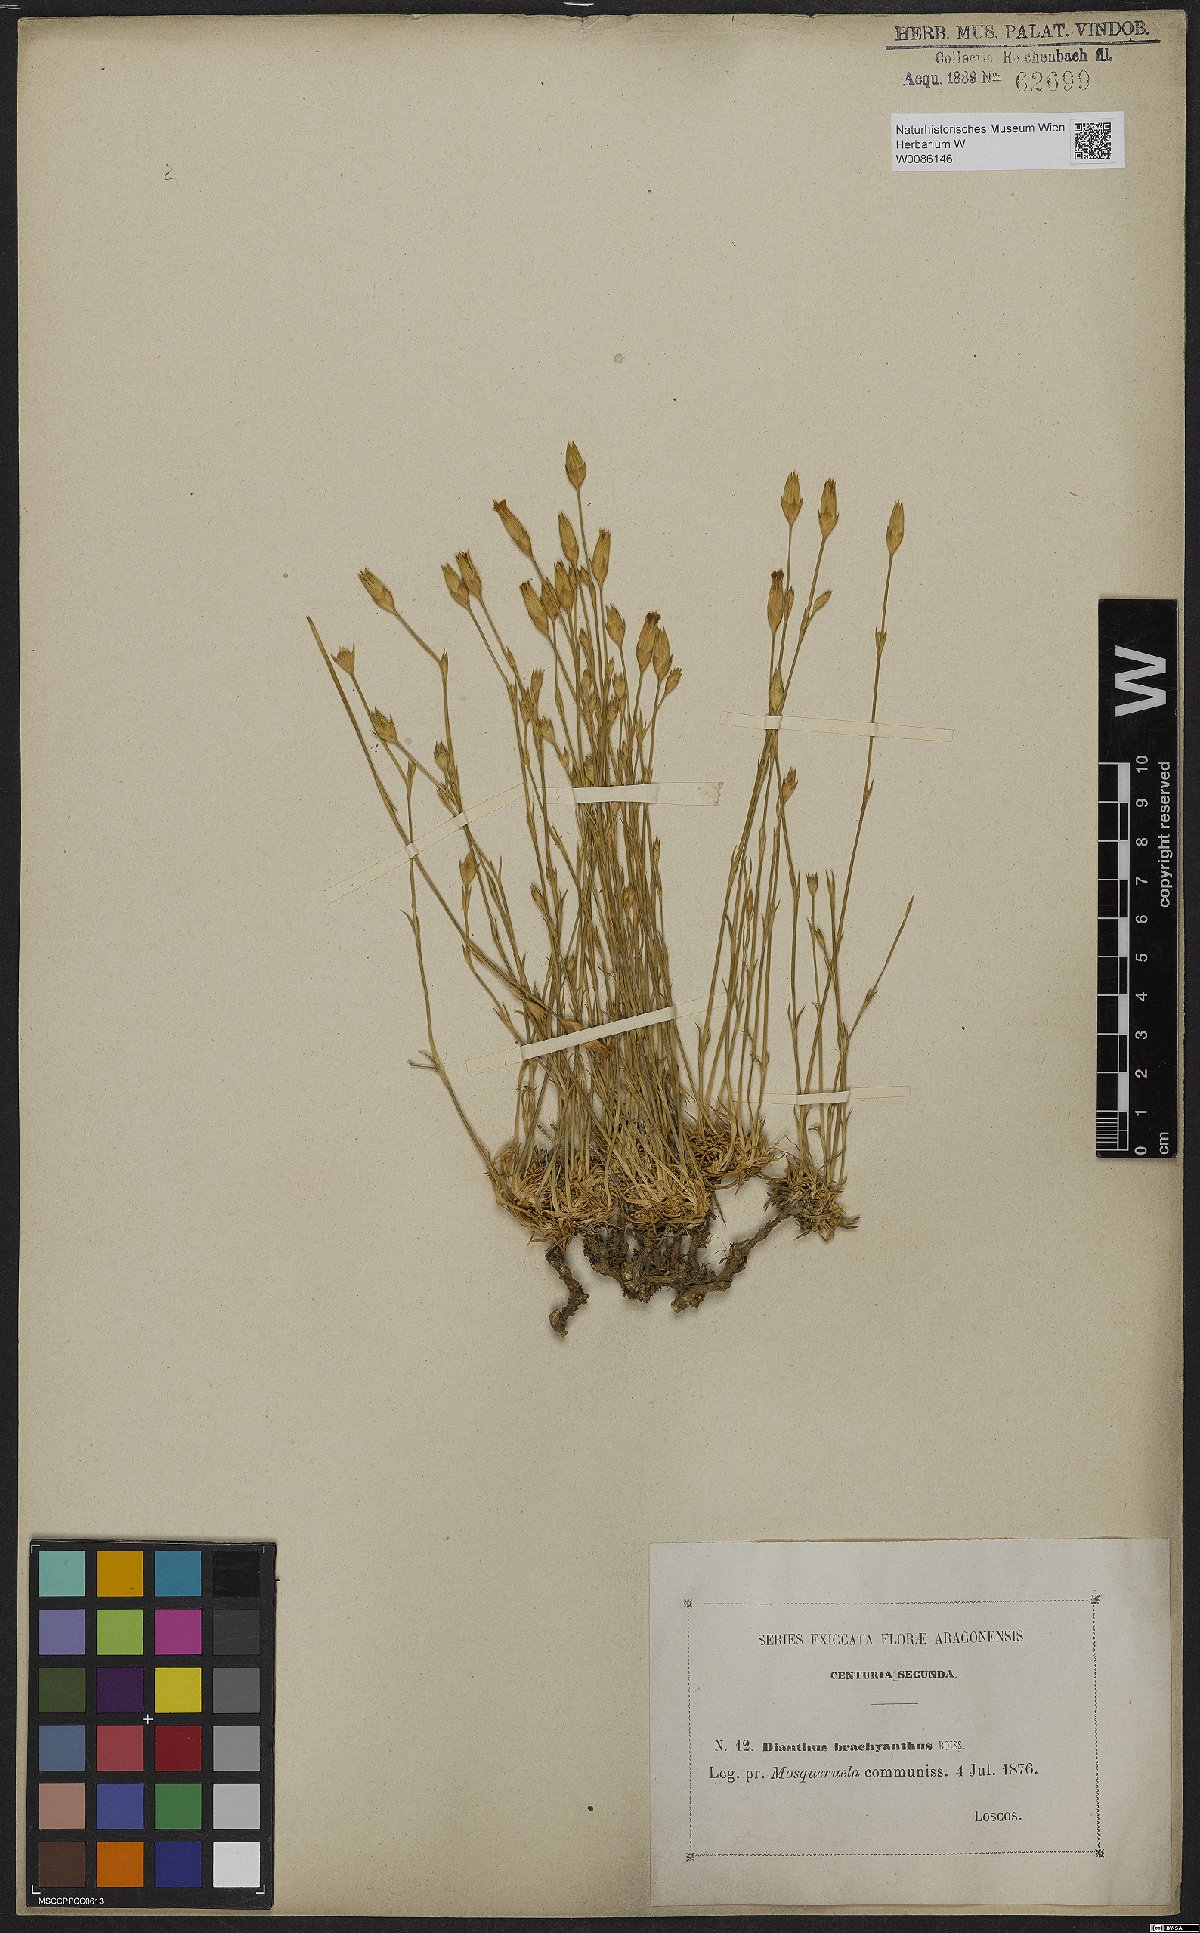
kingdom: Plantae
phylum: Tracheophyta
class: Magnoliopsida
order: Caryophyllales
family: Caryophyllaceae
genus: Dianthus
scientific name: Dianthus pungens
